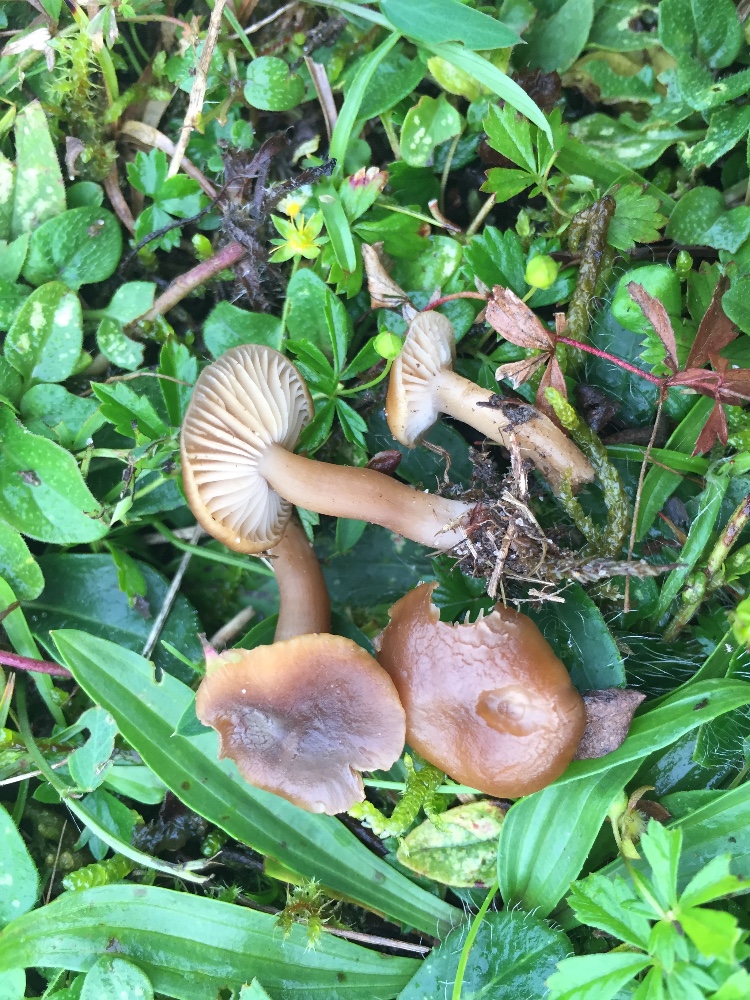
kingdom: Fungi
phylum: Basidiomycota
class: Agaricomycetes
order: Agaricales
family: Clavariaceae
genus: Camarophyllopsis
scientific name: Camarophyllopsis schulzeri
